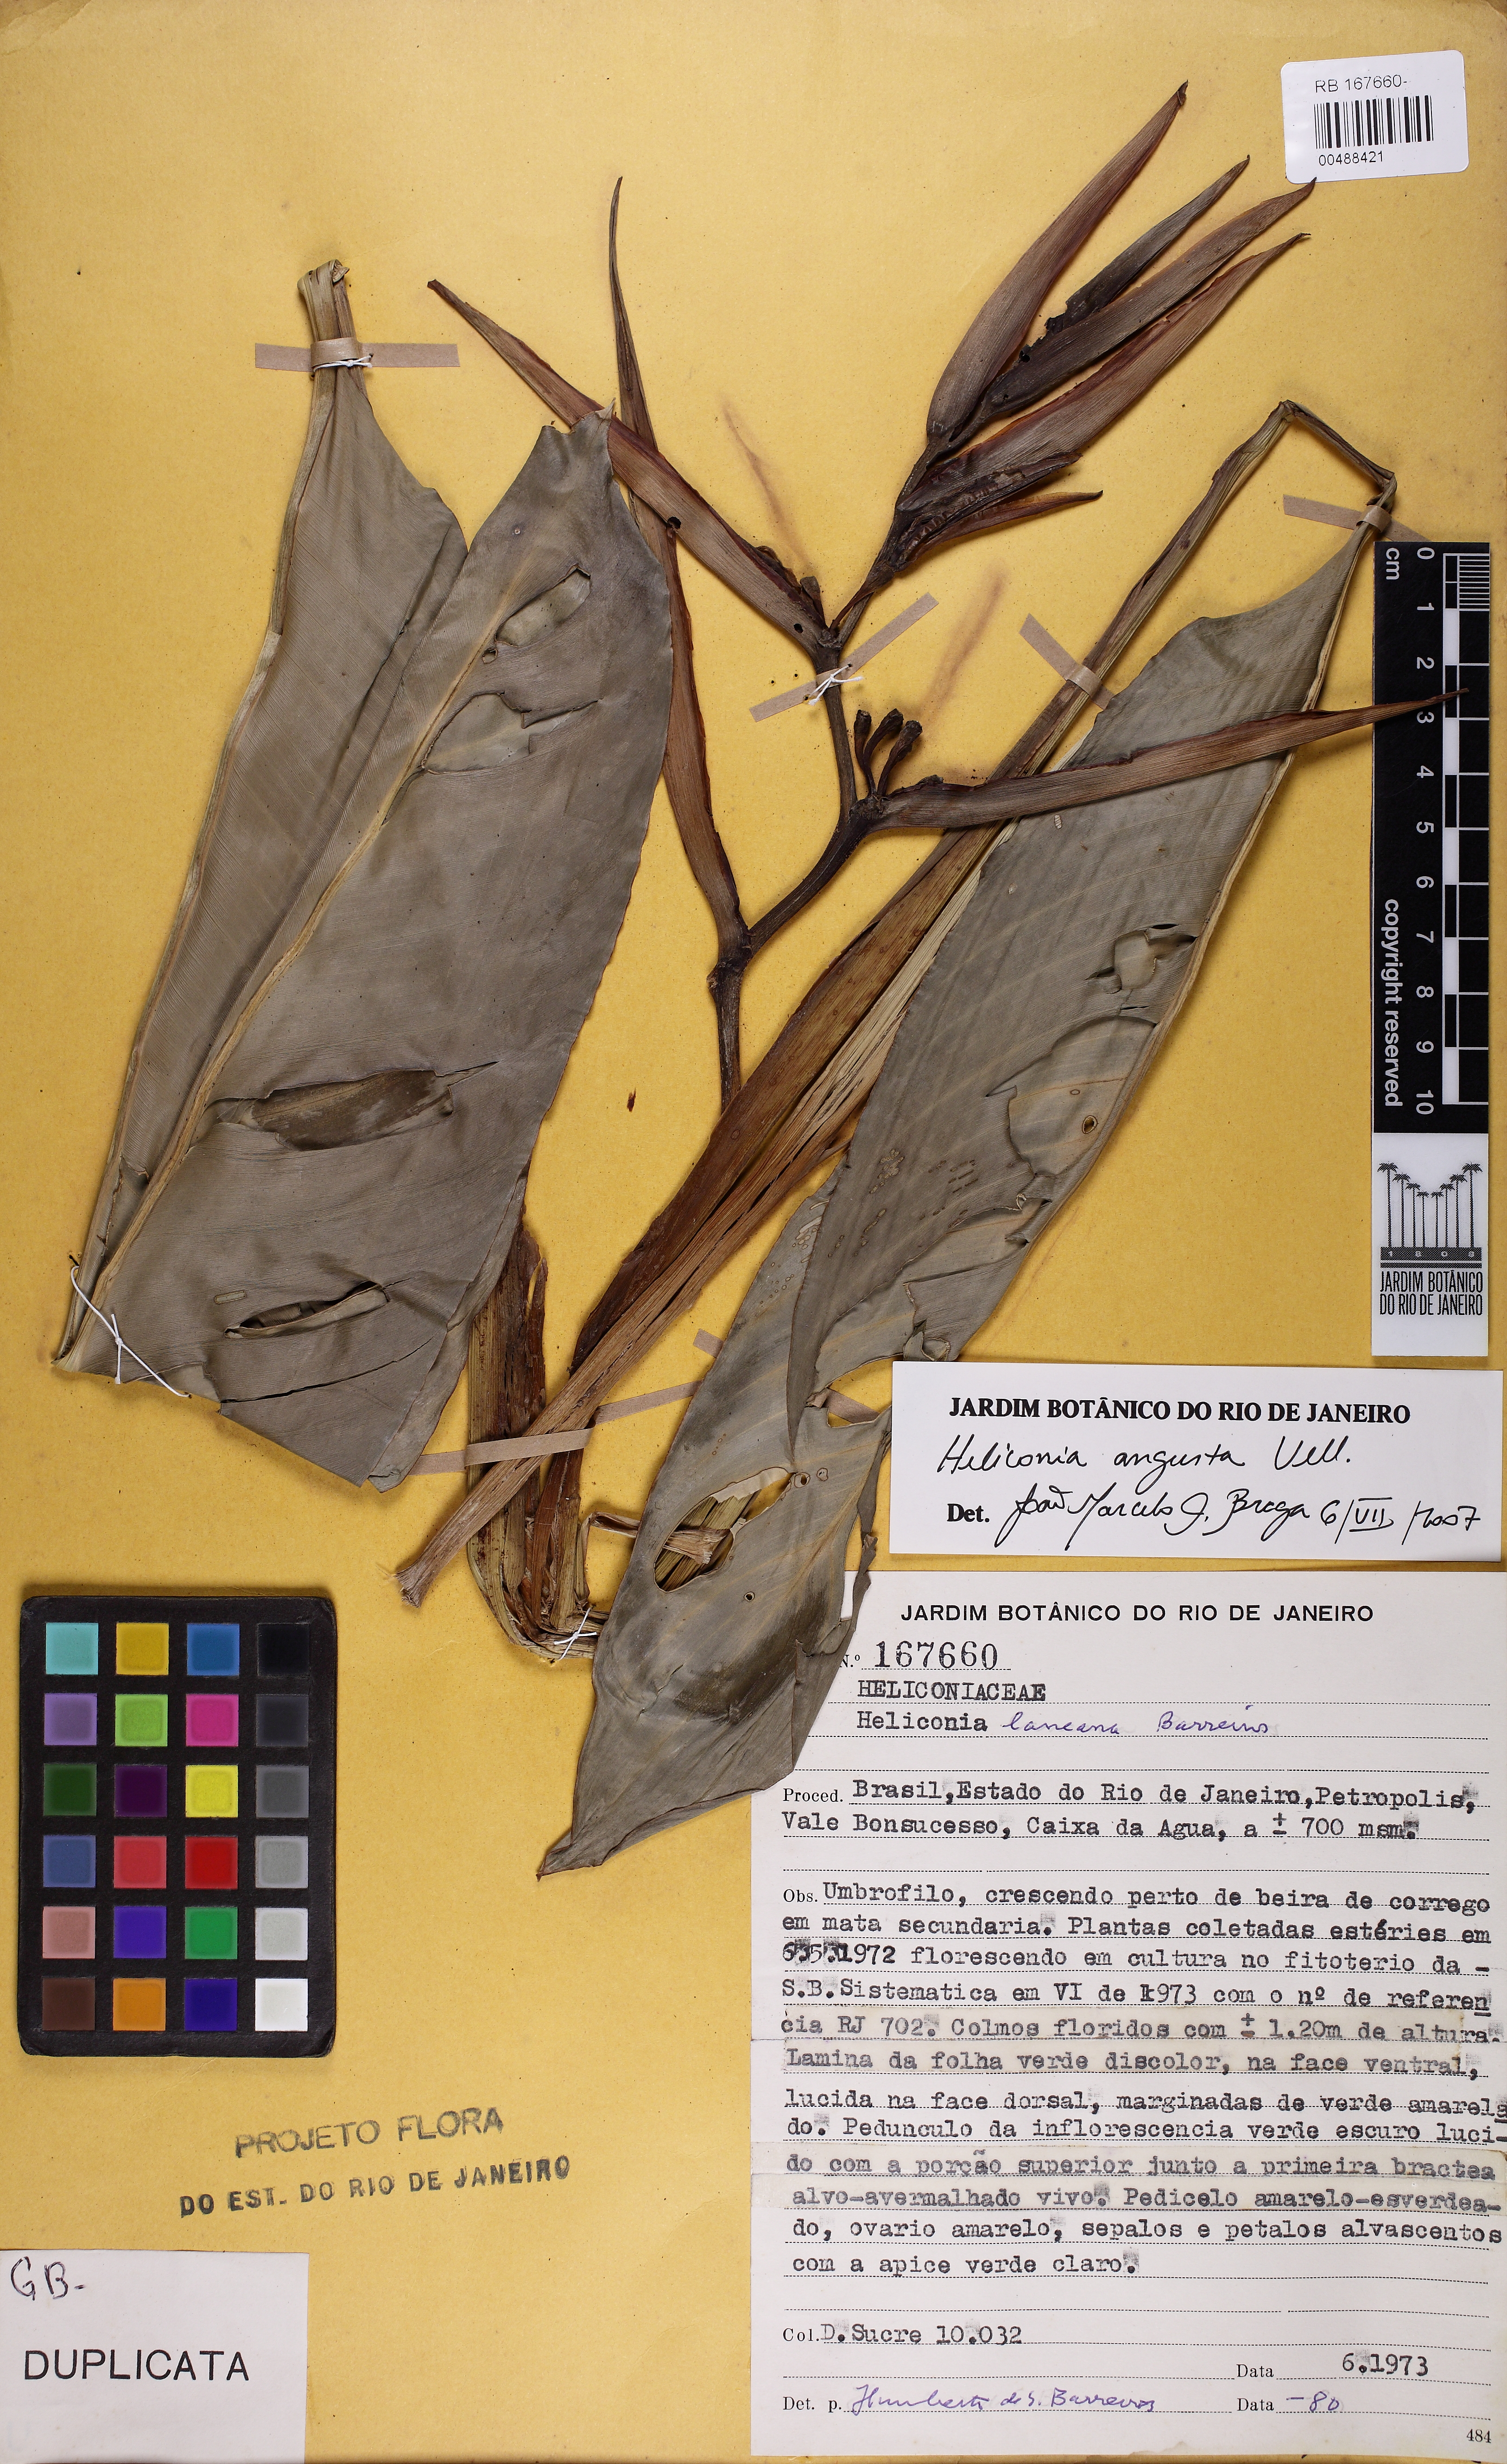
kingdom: Plantae
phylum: Tracheophyta
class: Liliopsida
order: Zingiberales
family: Heliconiaceae
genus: Heliconia
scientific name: Heliconia angusta
